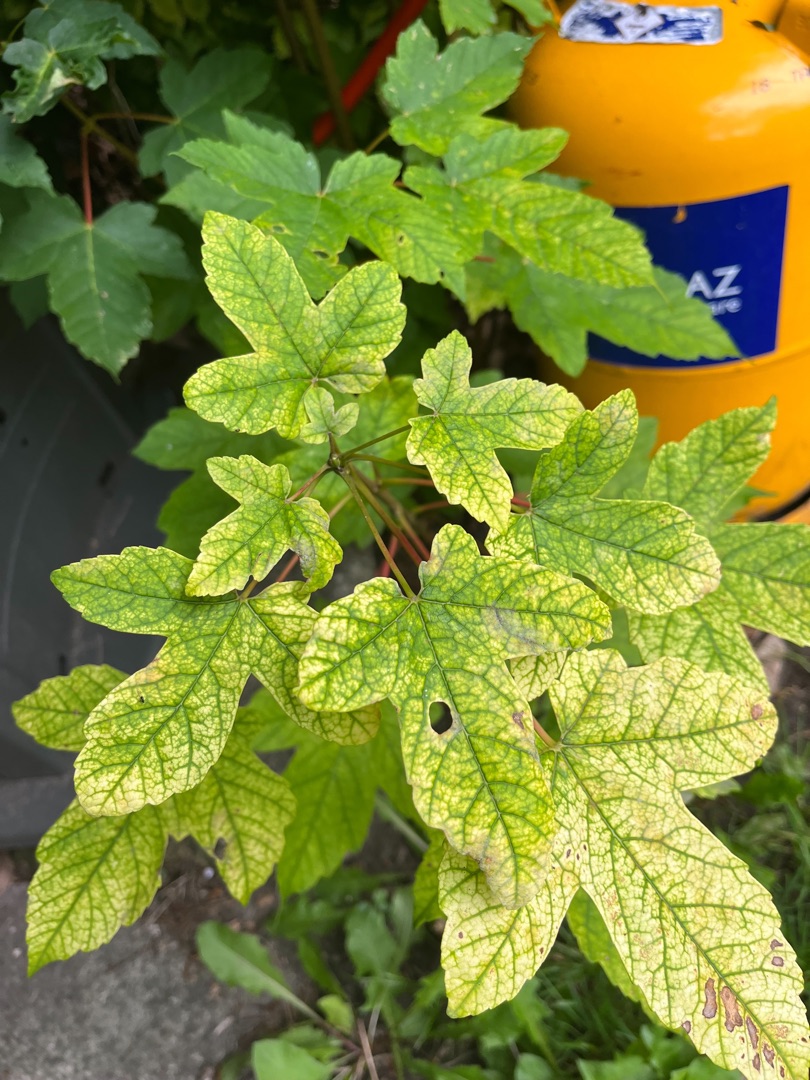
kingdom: Plantae
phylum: Tracheophyta
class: Magnoliopsida
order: Sapindales
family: Sapindaceae
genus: Acer
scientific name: Acer pseudoplatanus
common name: Ahorn
